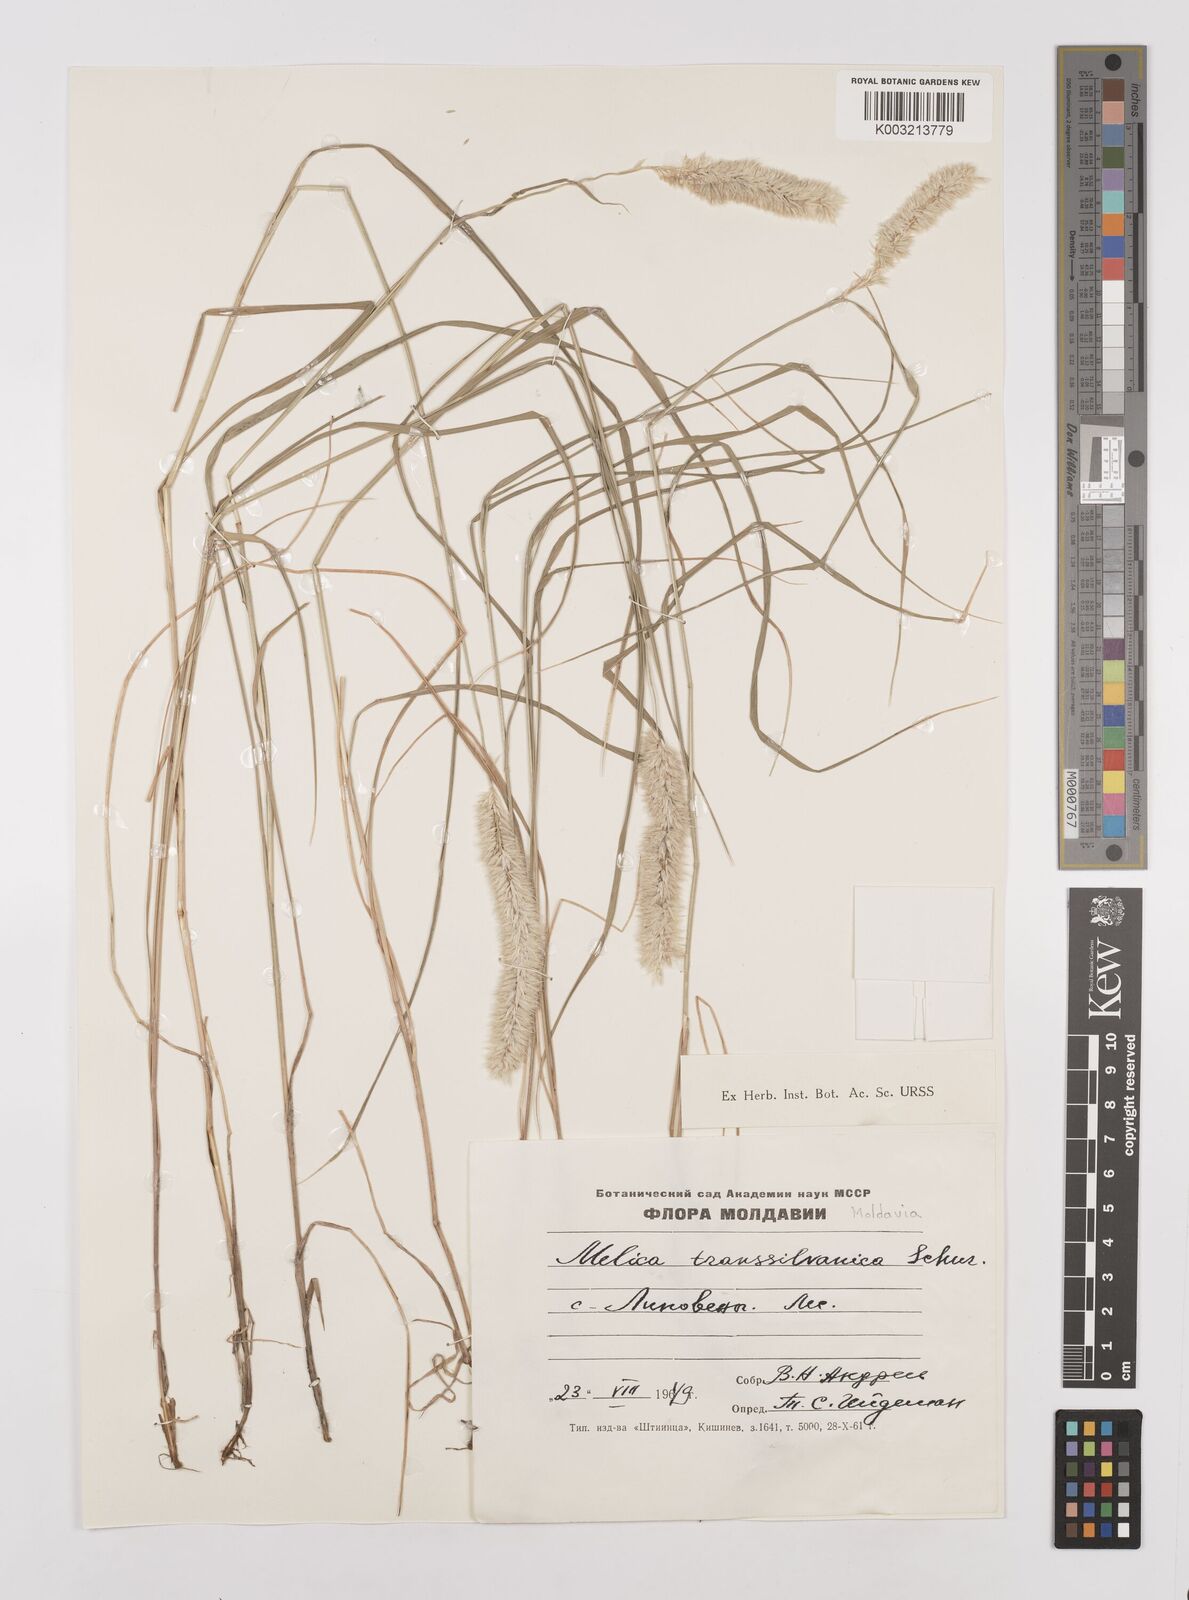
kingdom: Plantae
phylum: Tracheophyta
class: Liliopsida
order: Poales
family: Poaceae
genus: Melica
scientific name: Melica transsilvanica
